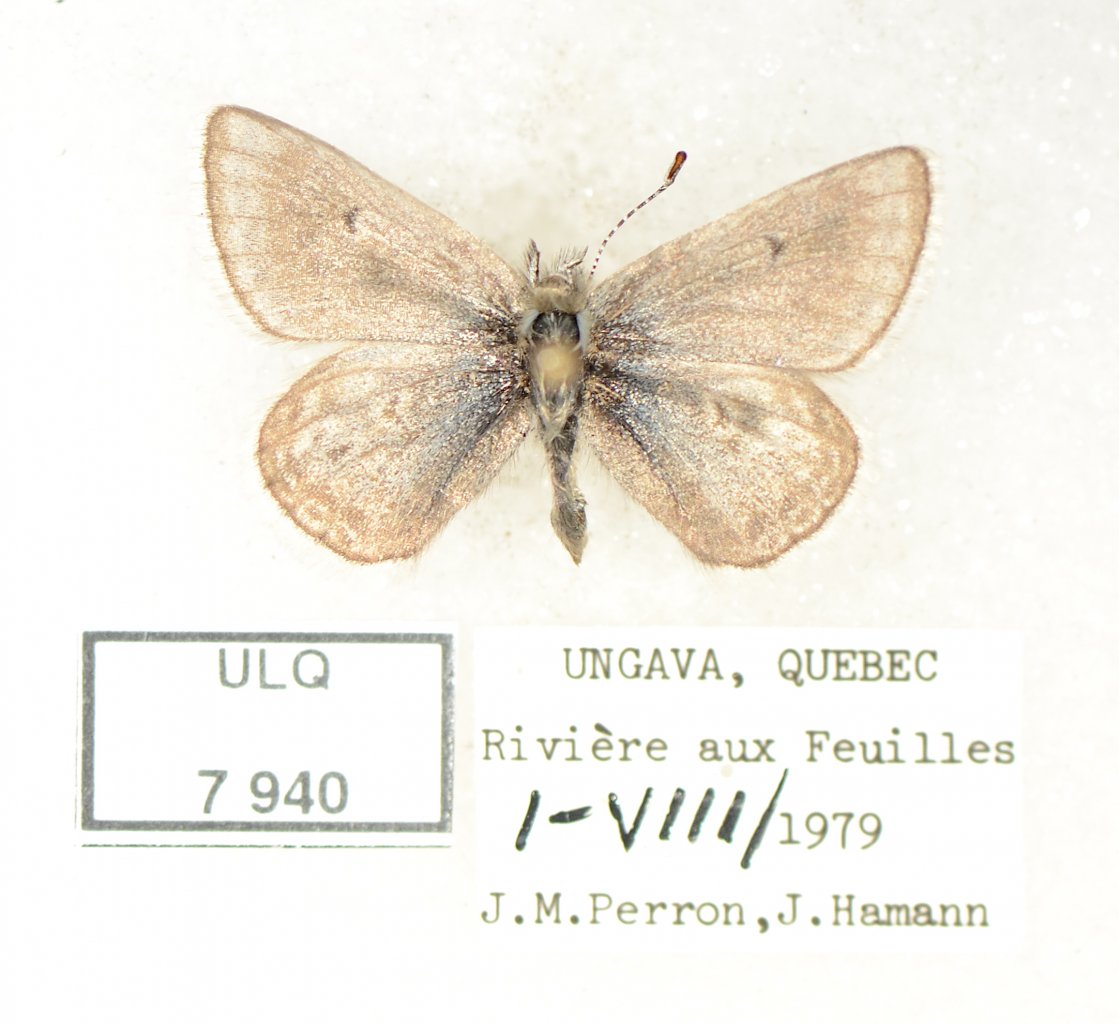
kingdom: Animalia
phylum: Arthropoda
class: Insecta
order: Lepidoptera
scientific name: Lepidoptera
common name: Butterflies
